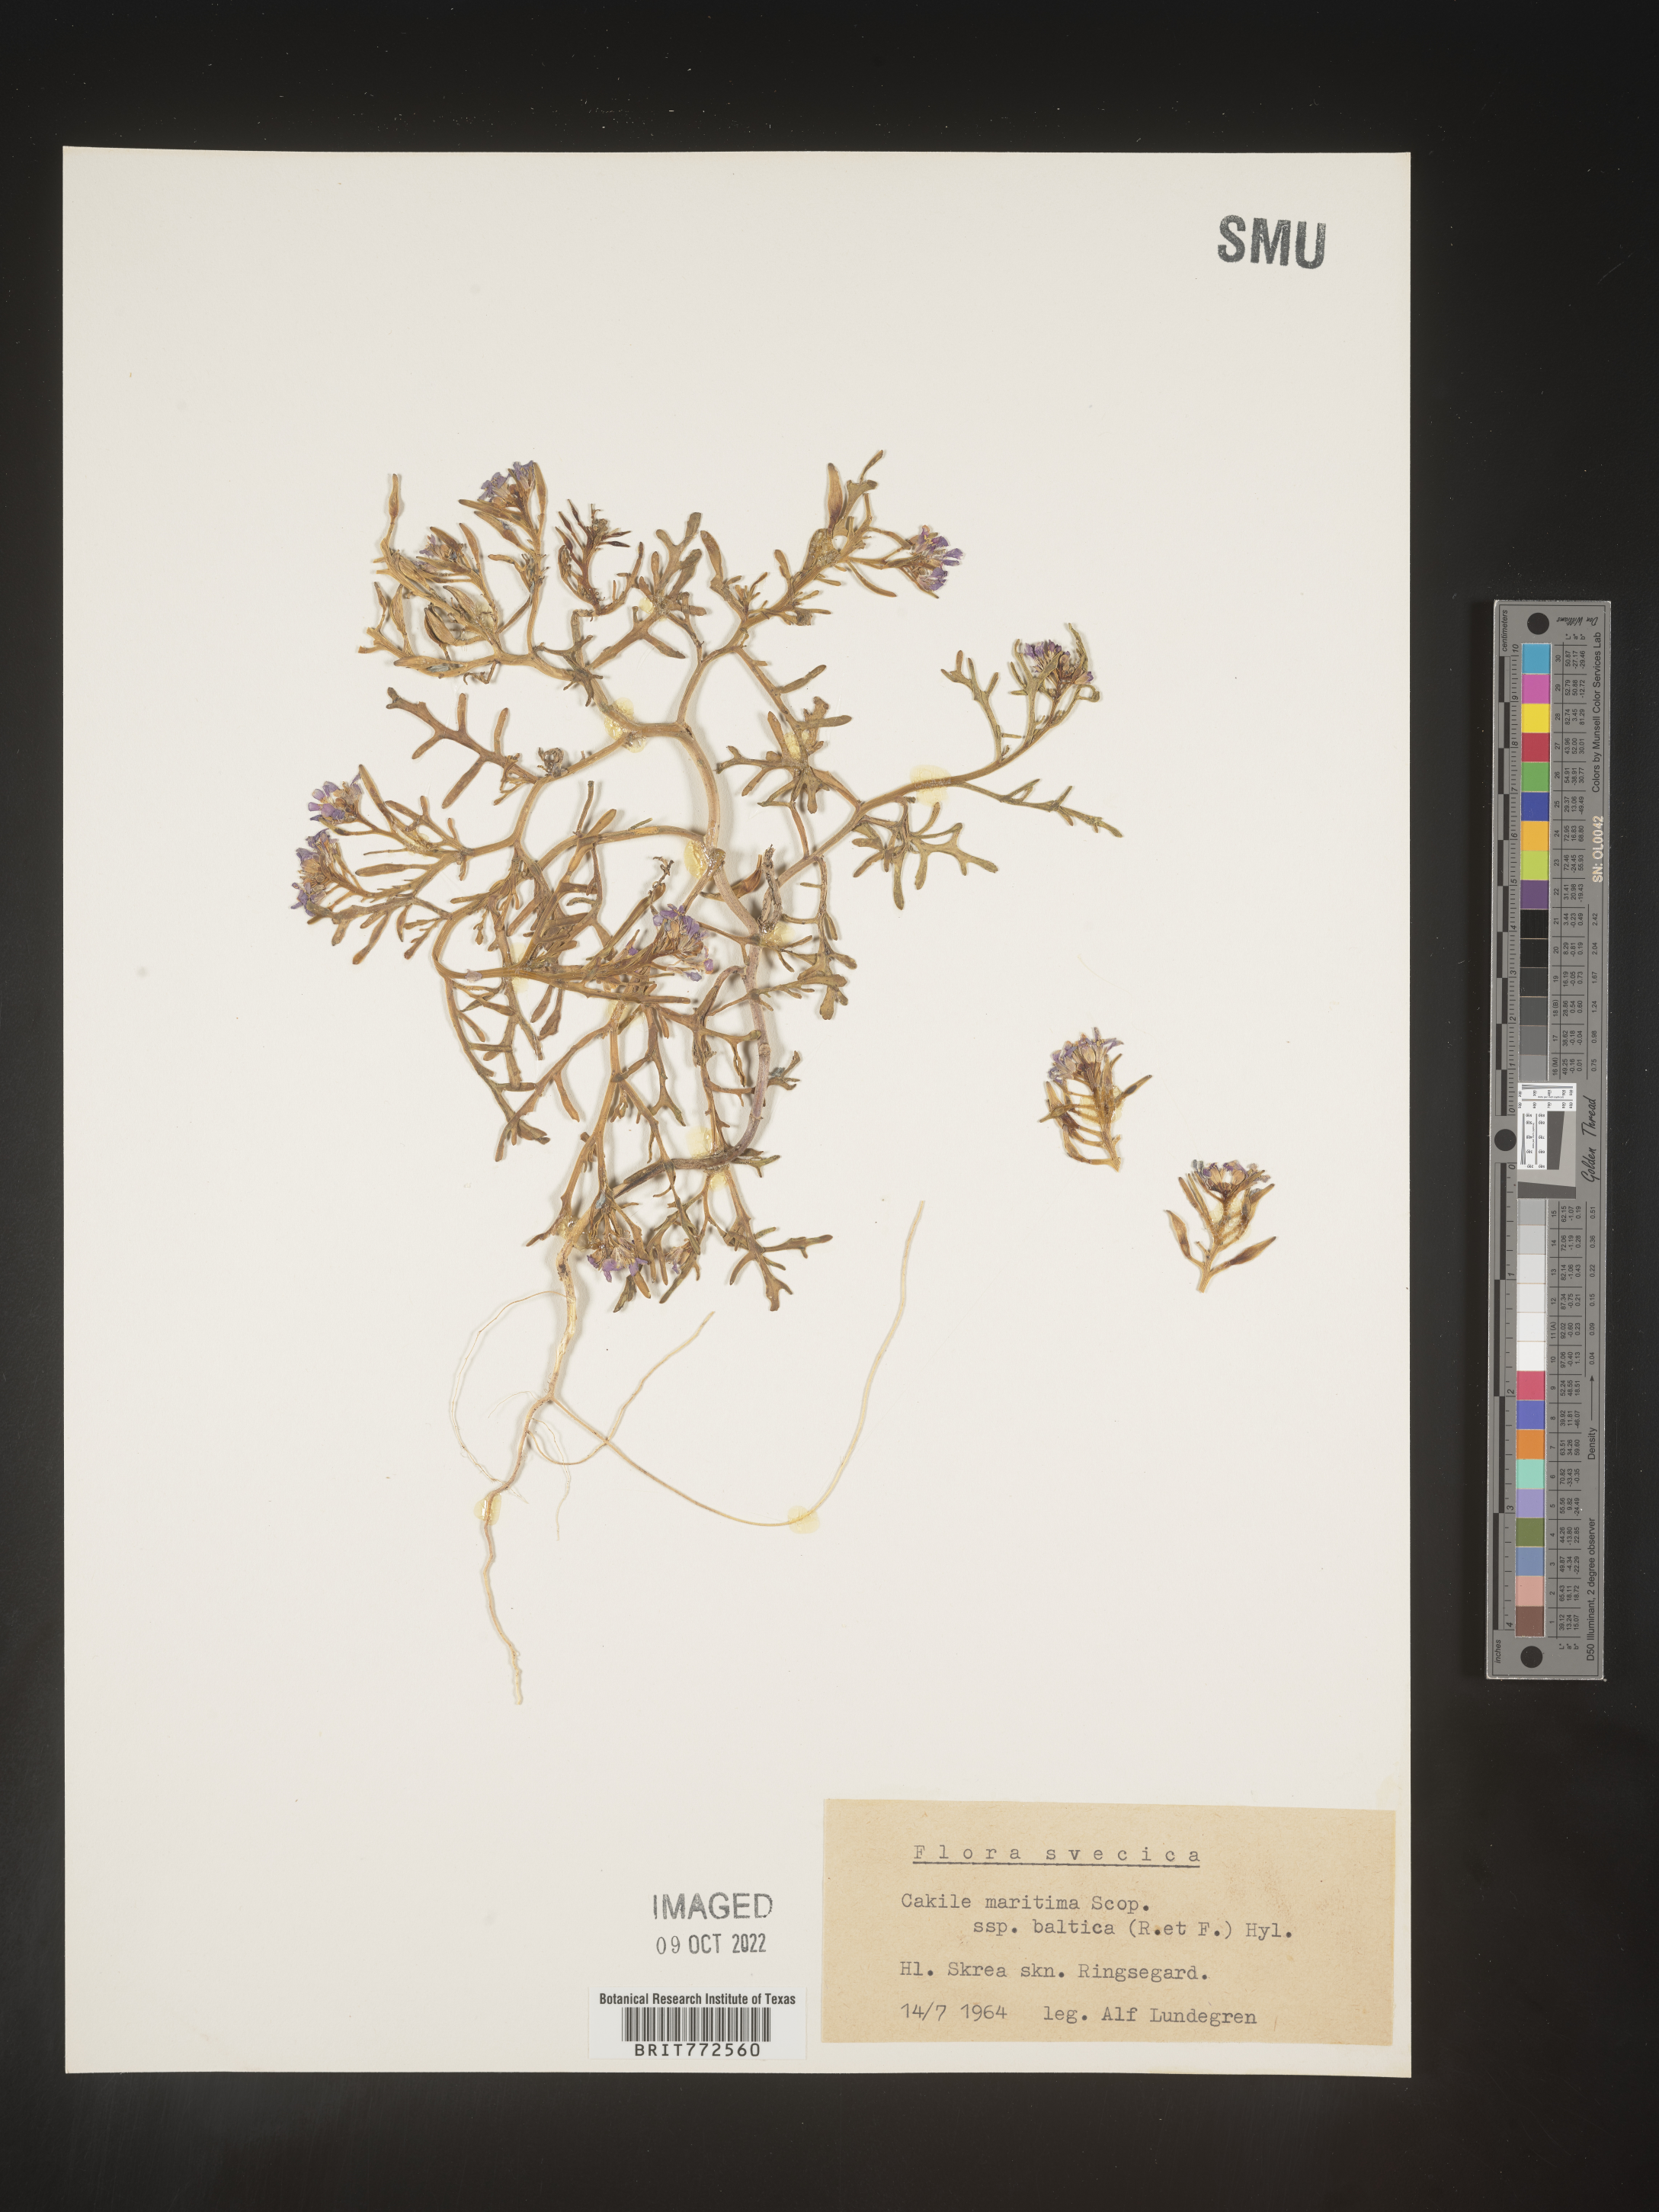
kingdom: Plantae
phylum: Tracheophyta
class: Magnoliopsida
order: Brassicales
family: Brassicaceae
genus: Cakile
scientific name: Cakile
